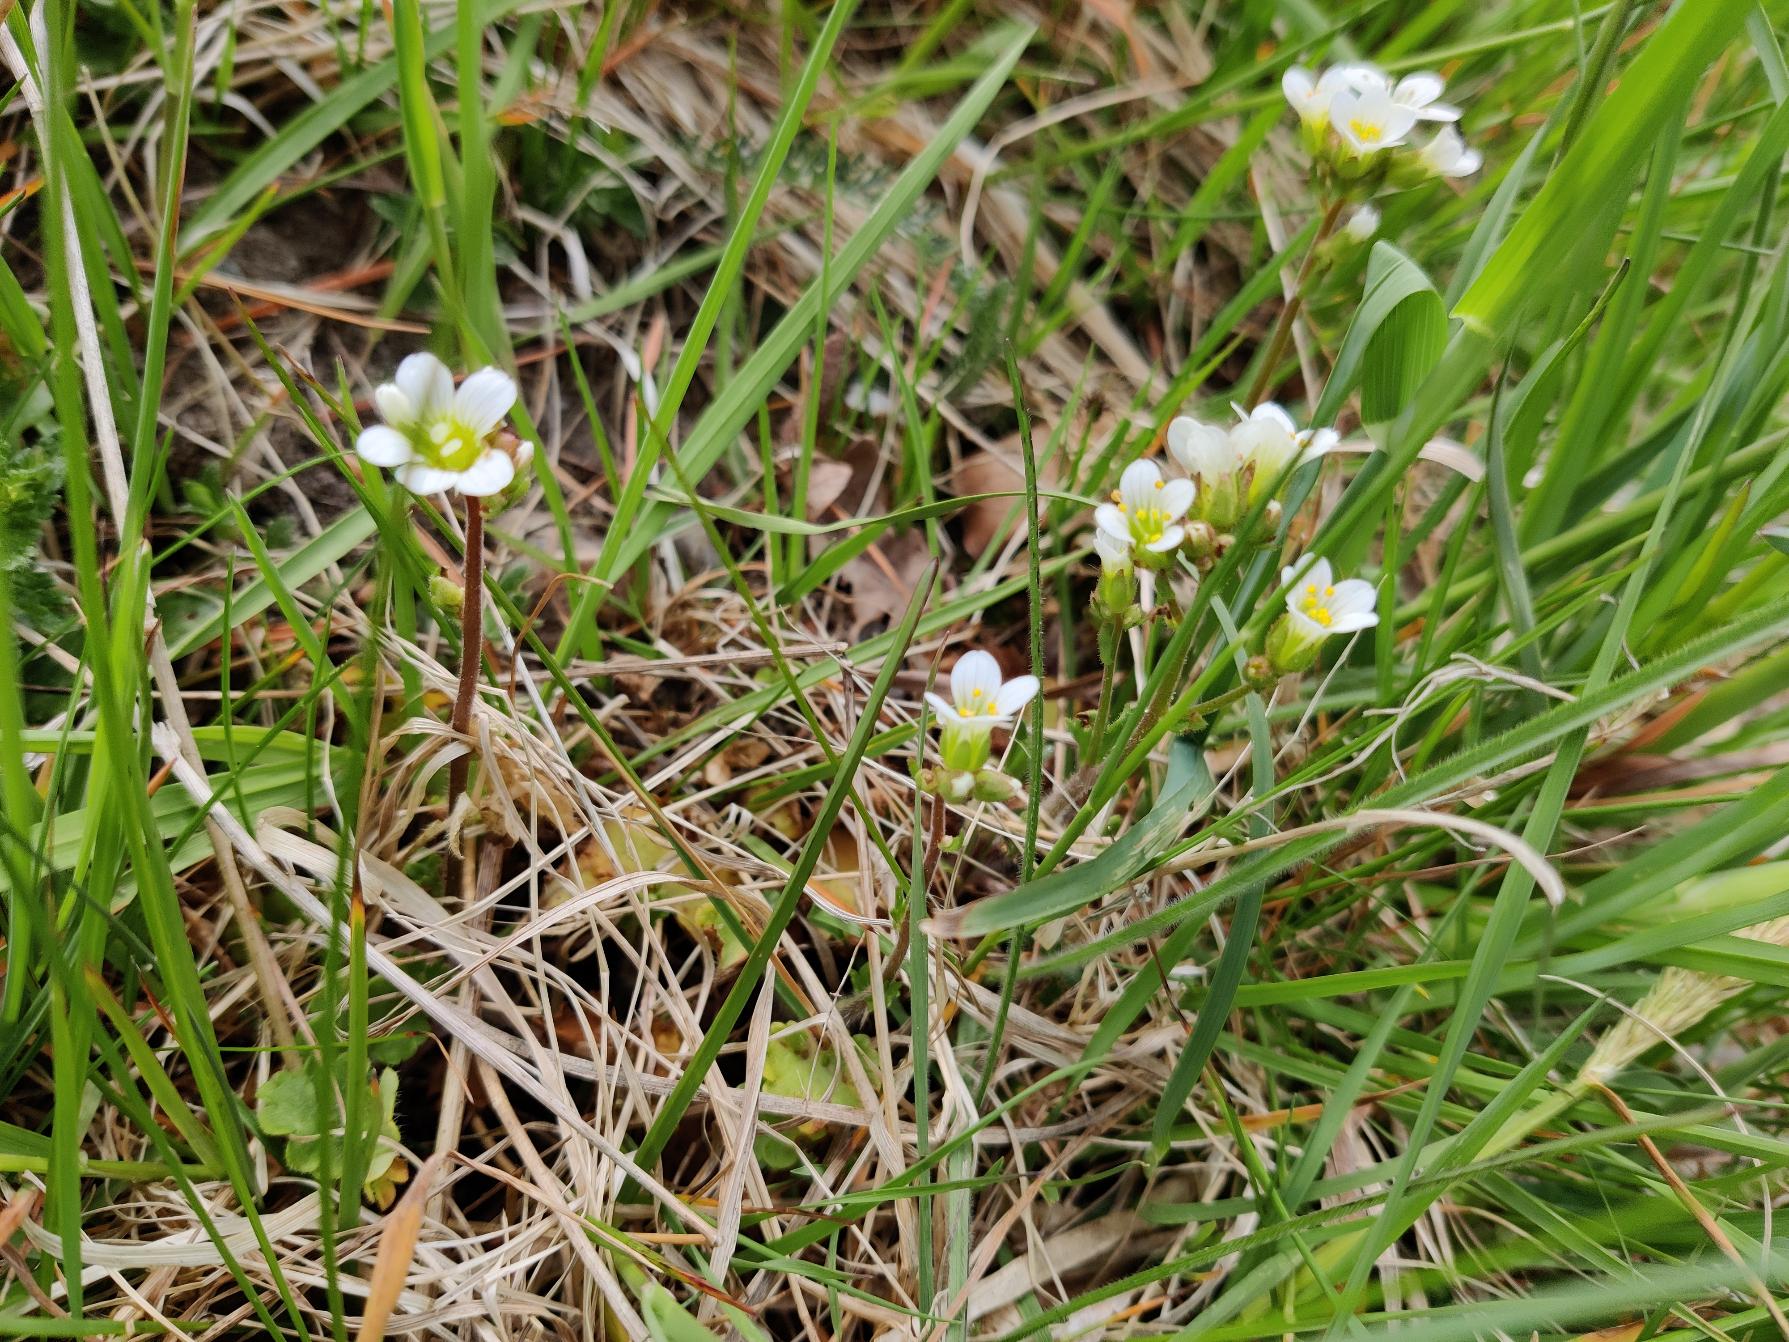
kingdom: Plantae
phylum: Tracheophyta
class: Magnoliopsida
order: Saxifragales
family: Saxifragaceae
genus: Saxifraga
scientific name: Saxifraga granulata
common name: Kornet stenbræk
